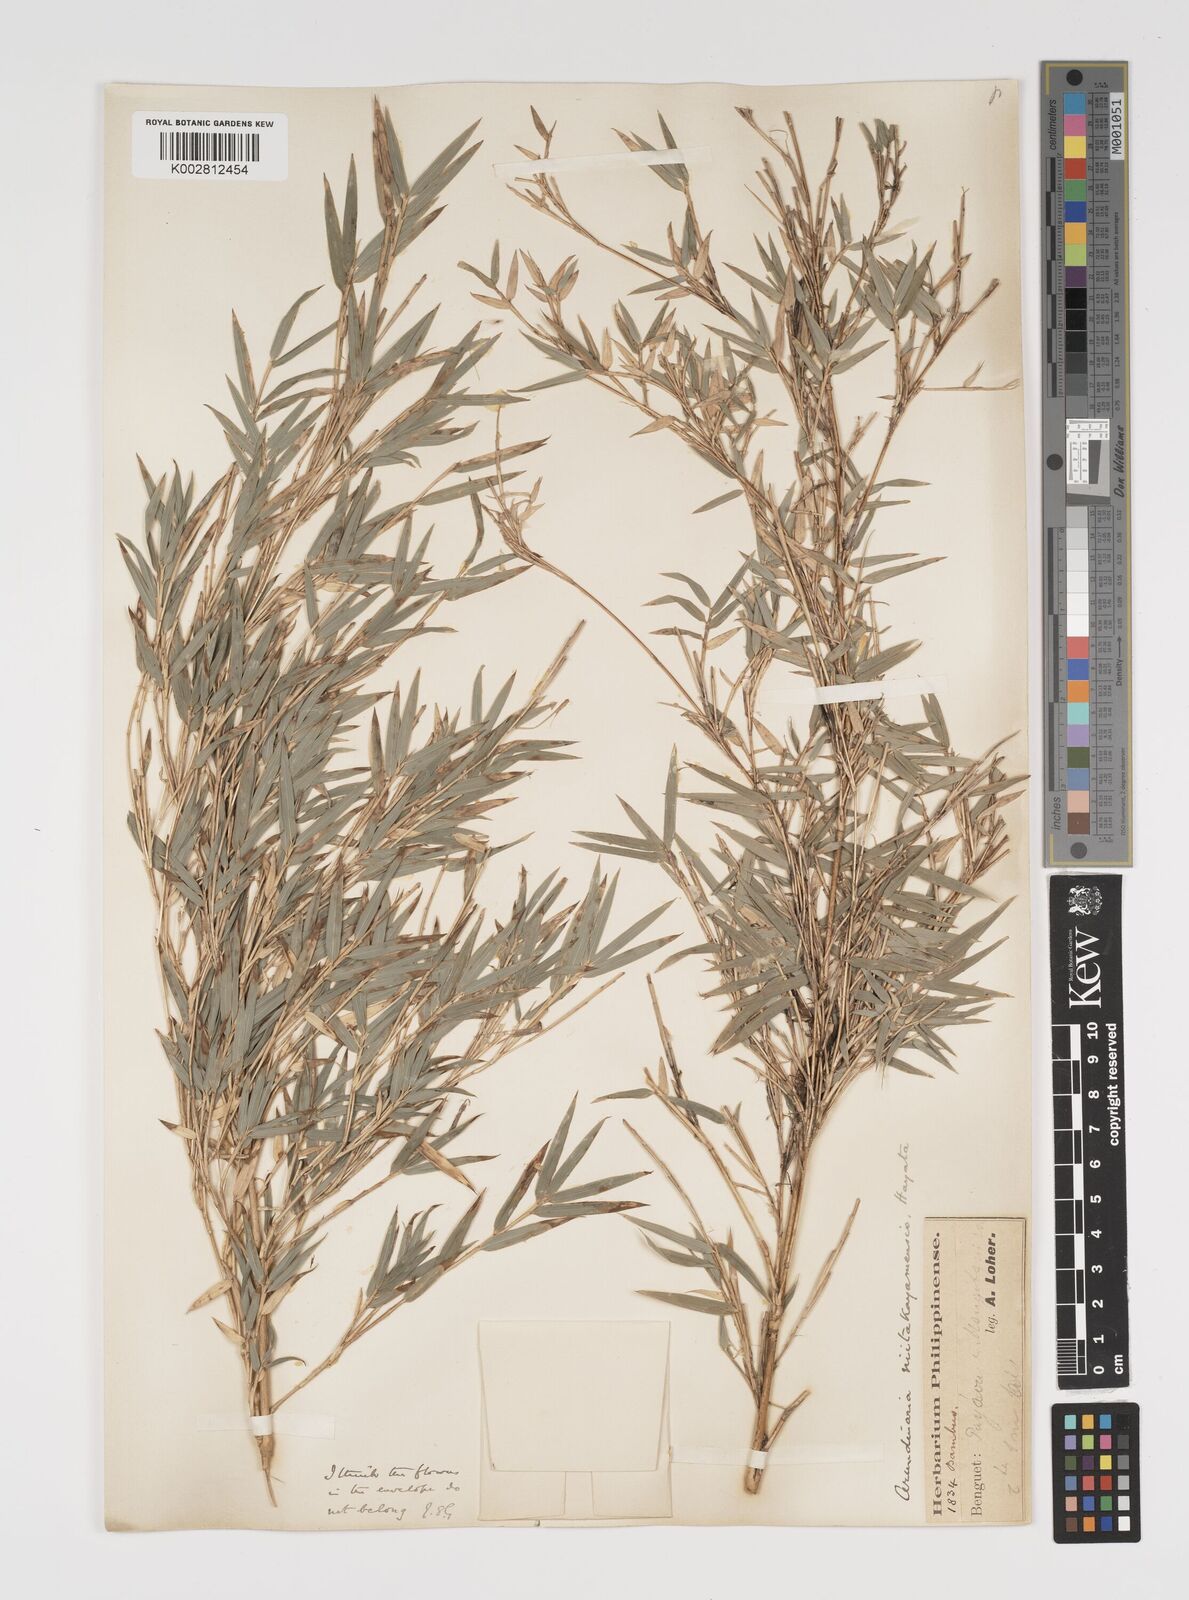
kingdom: Plantae
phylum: Tracheophyta
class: Liliopsida
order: Poales
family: Poaceae
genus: Yushania
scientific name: Yushania niitakayamensis
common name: Yushan cane
